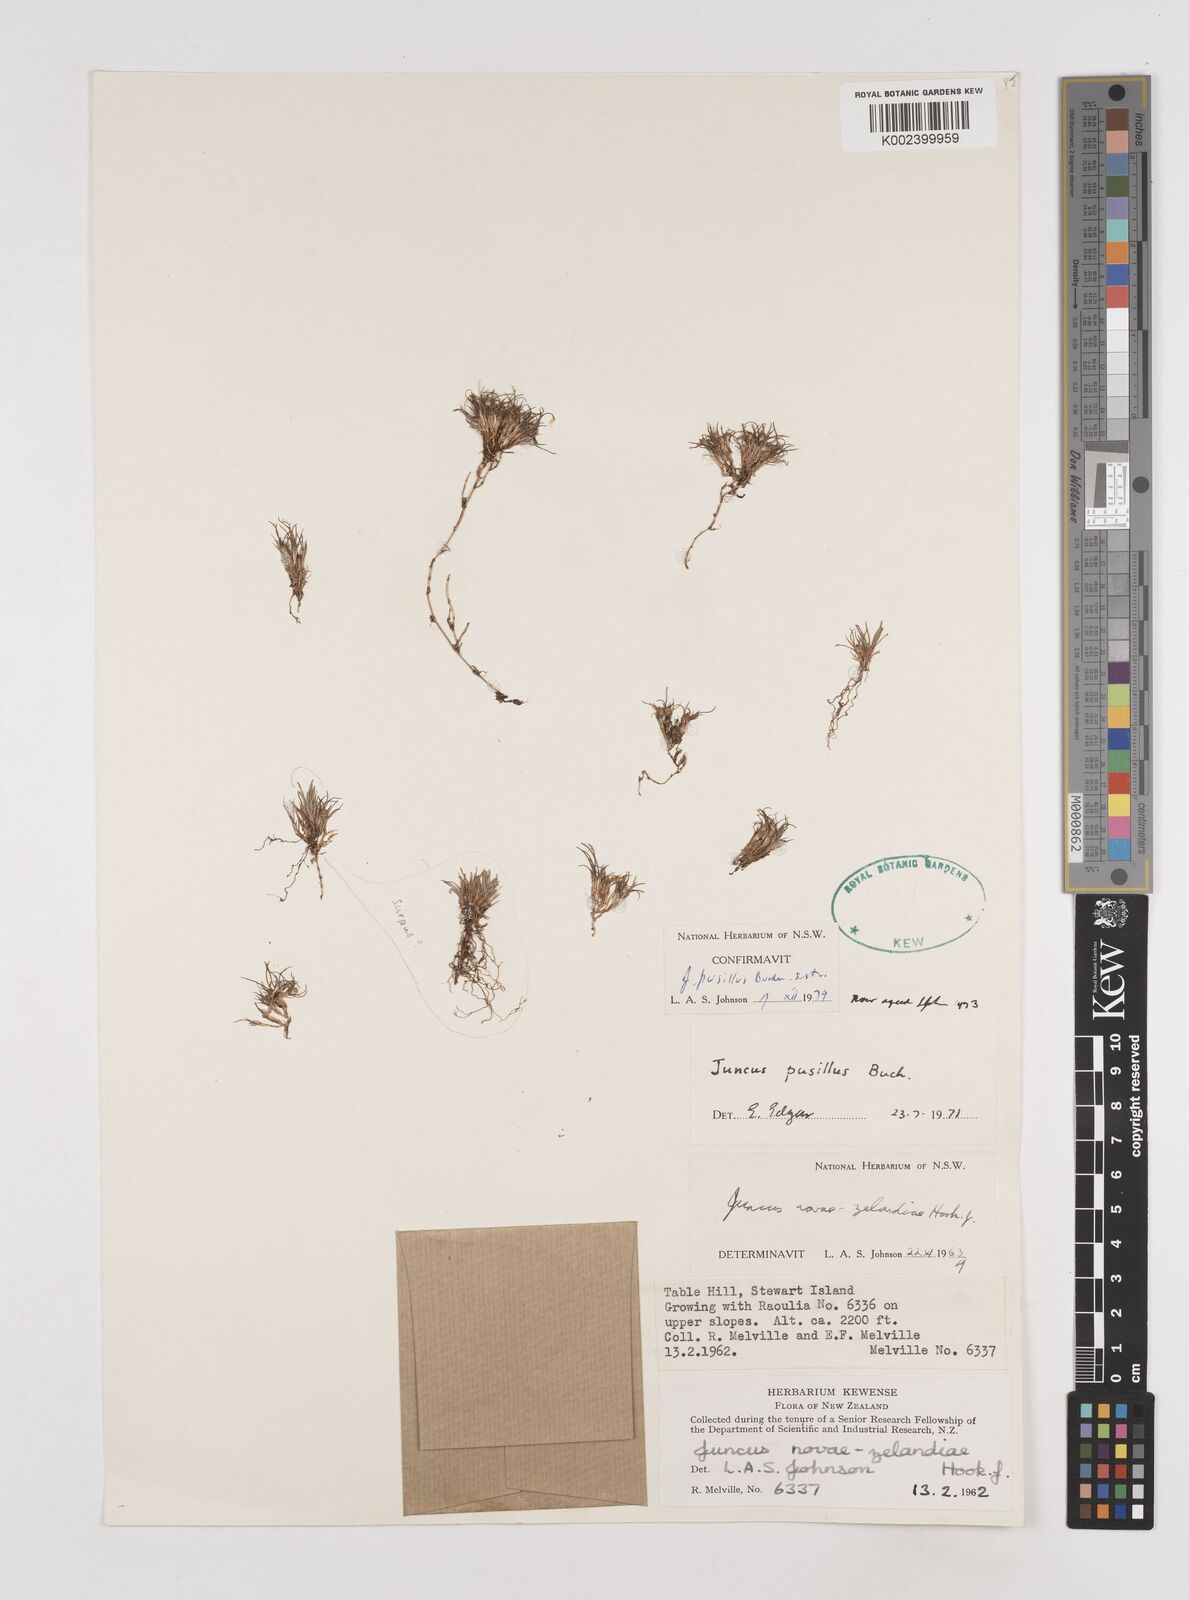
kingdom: Plantae
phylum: Tracheophyta
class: Liliopsida
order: Poales
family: Juncaceae
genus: Juncus
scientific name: Juncus pusillus
